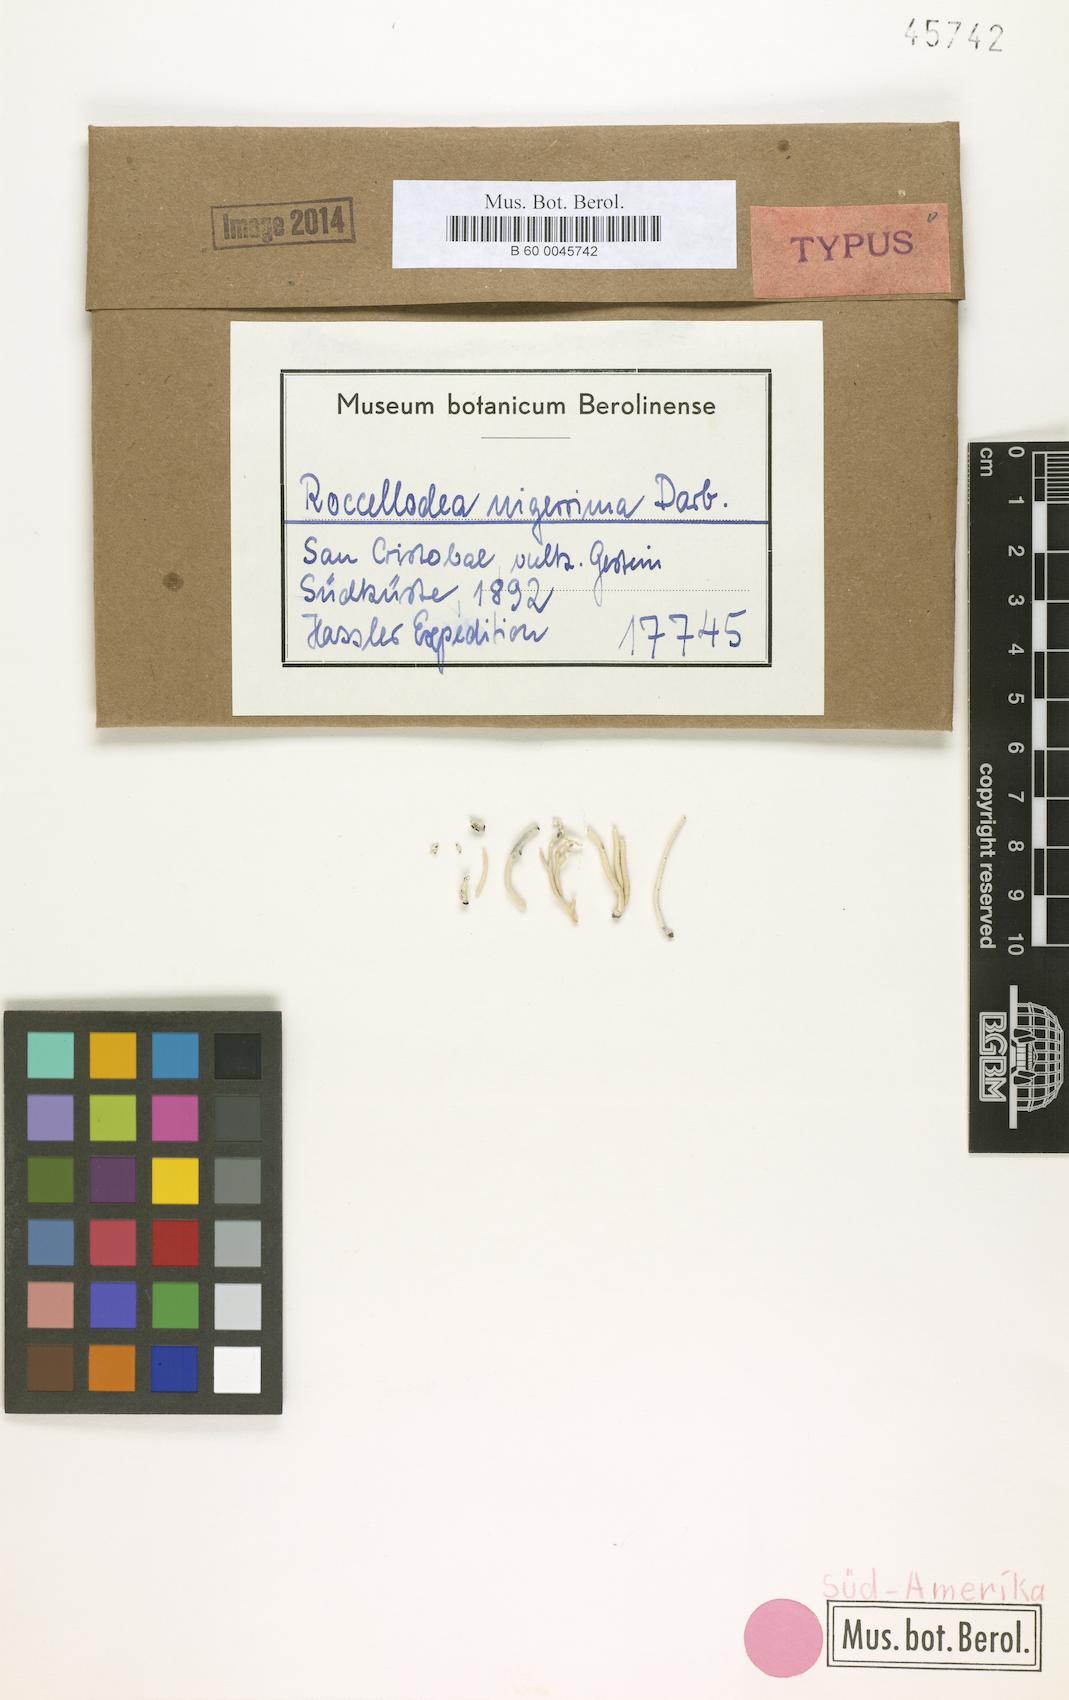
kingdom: Fungi
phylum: Ascomycota
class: Arthoniomycetes
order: Arthoniales
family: Roccellaceae
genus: Roccellodea
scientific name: Roccellodea nigerrima
